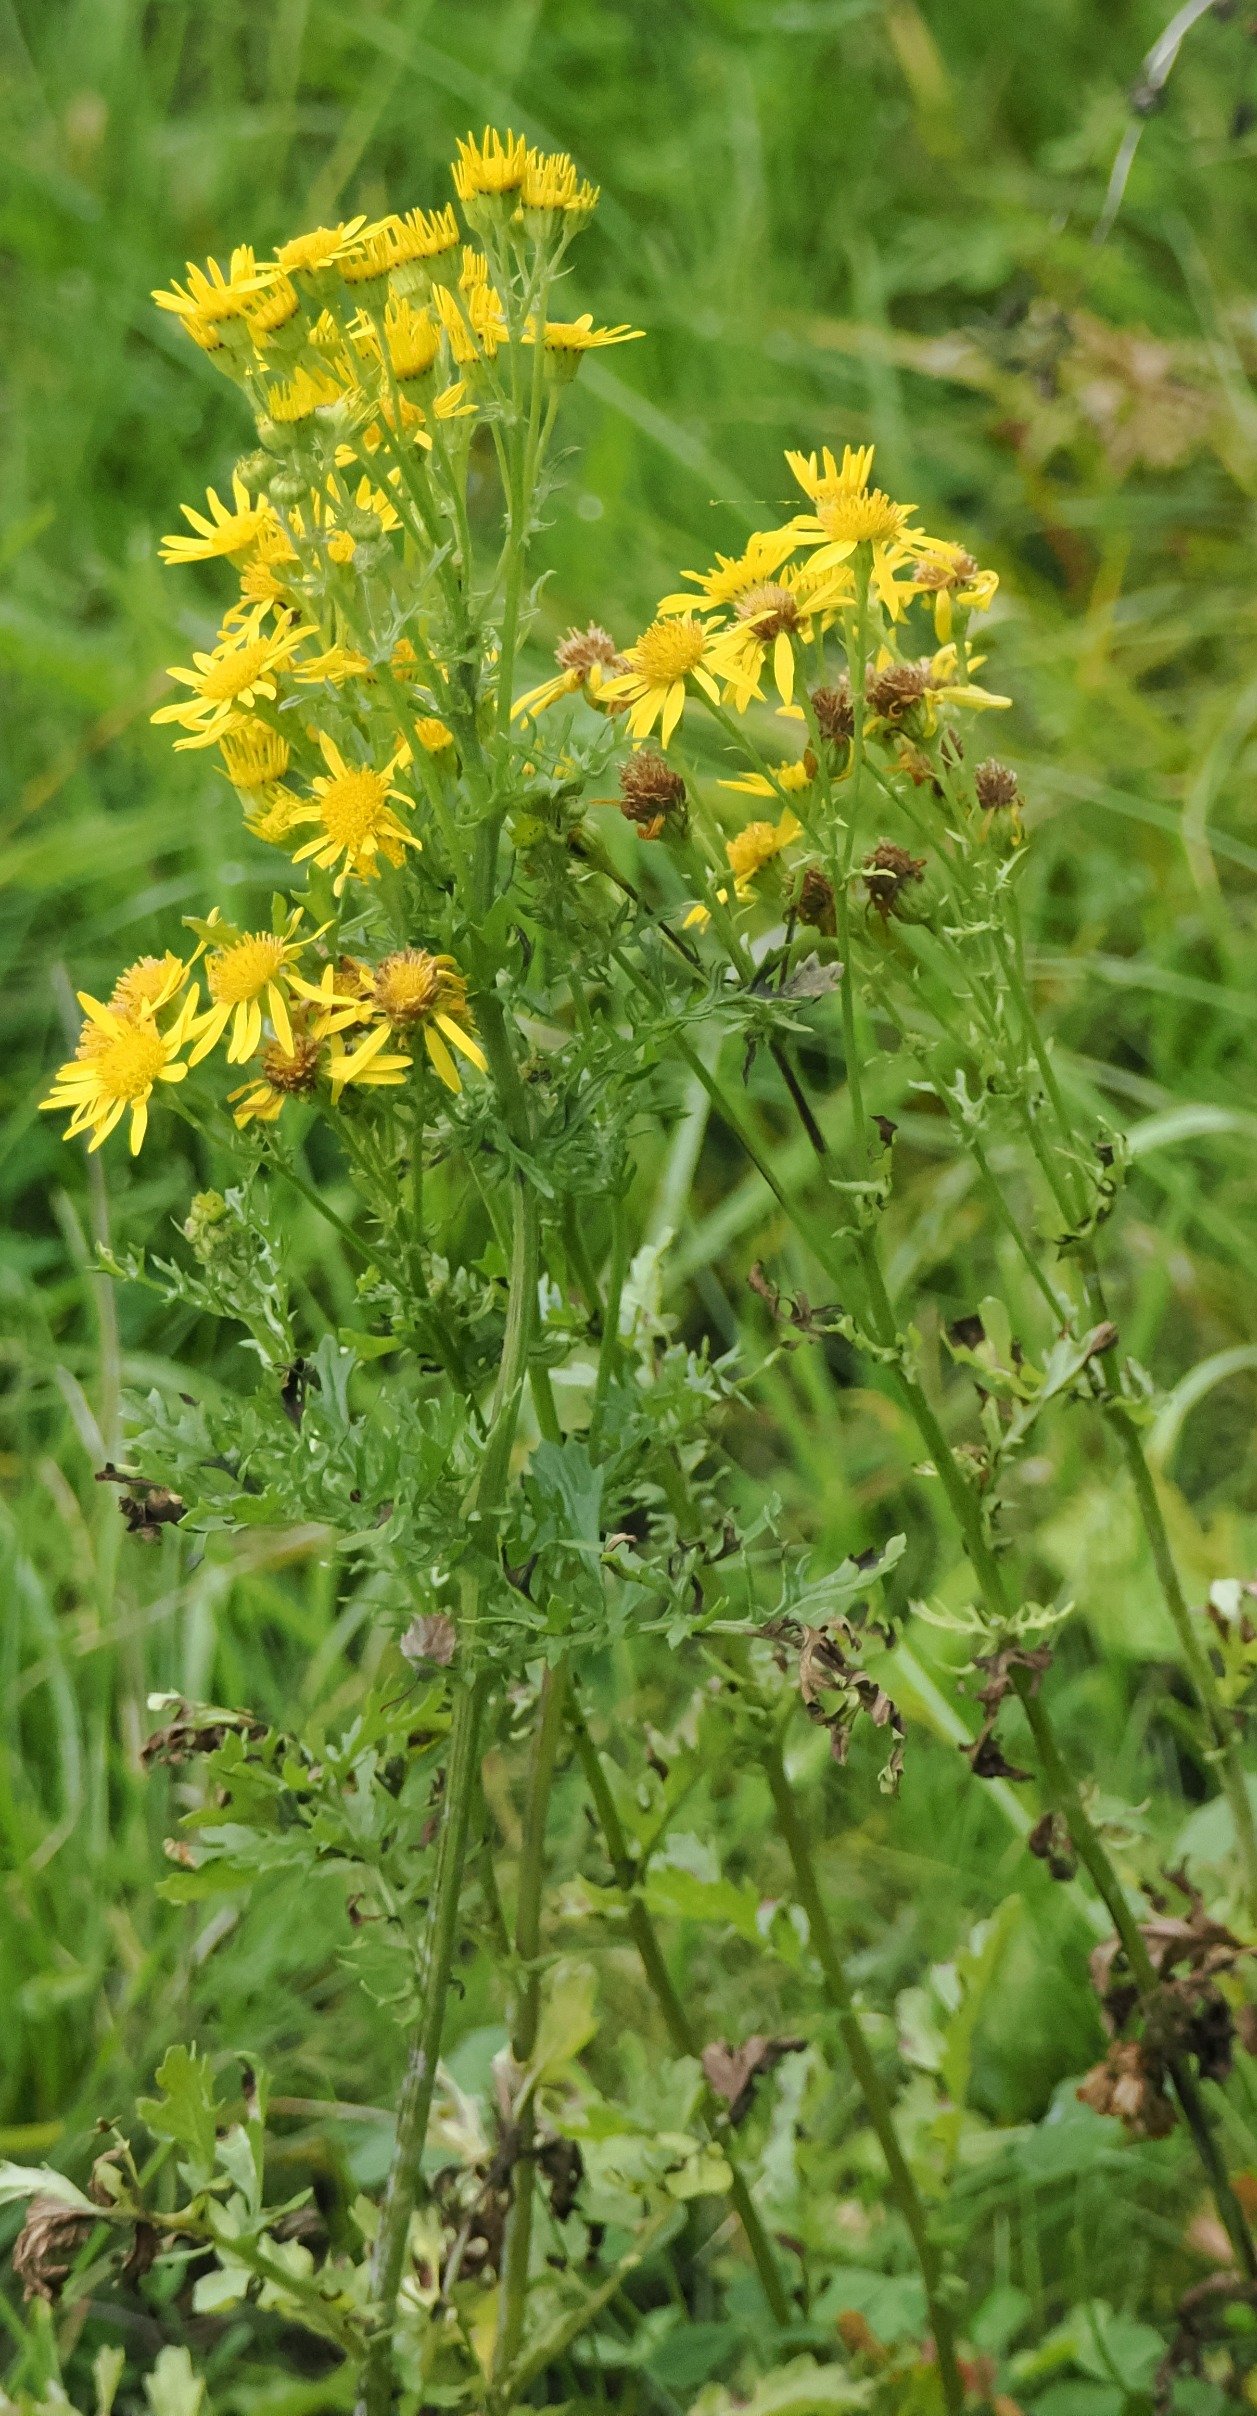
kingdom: Plantae
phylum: Tracheophyta
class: Magnoliopsida
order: Asterales
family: Asteraceae
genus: Jacobaea
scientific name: Jacobaea vulgaris
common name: Eng-brandbæger
